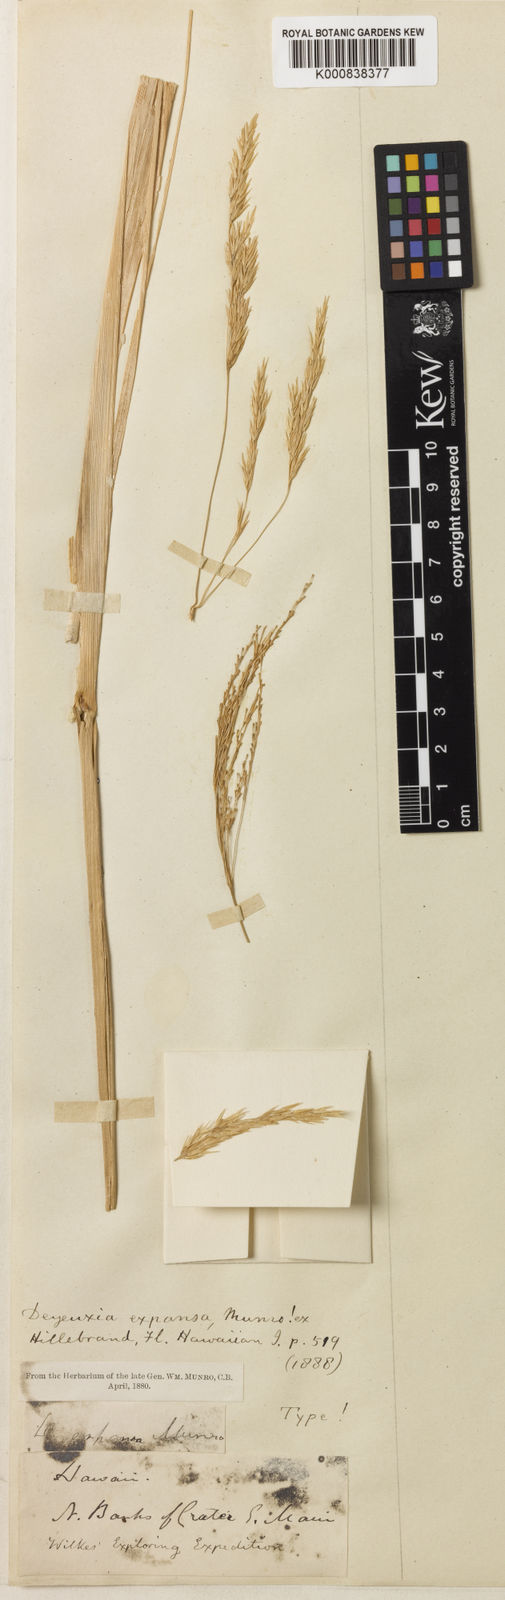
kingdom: Plantae
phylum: Tracheophyta
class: Liliopsida
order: Poales
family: Poaceae
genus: Calamagrostis
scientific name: Calamagrostis expansa
